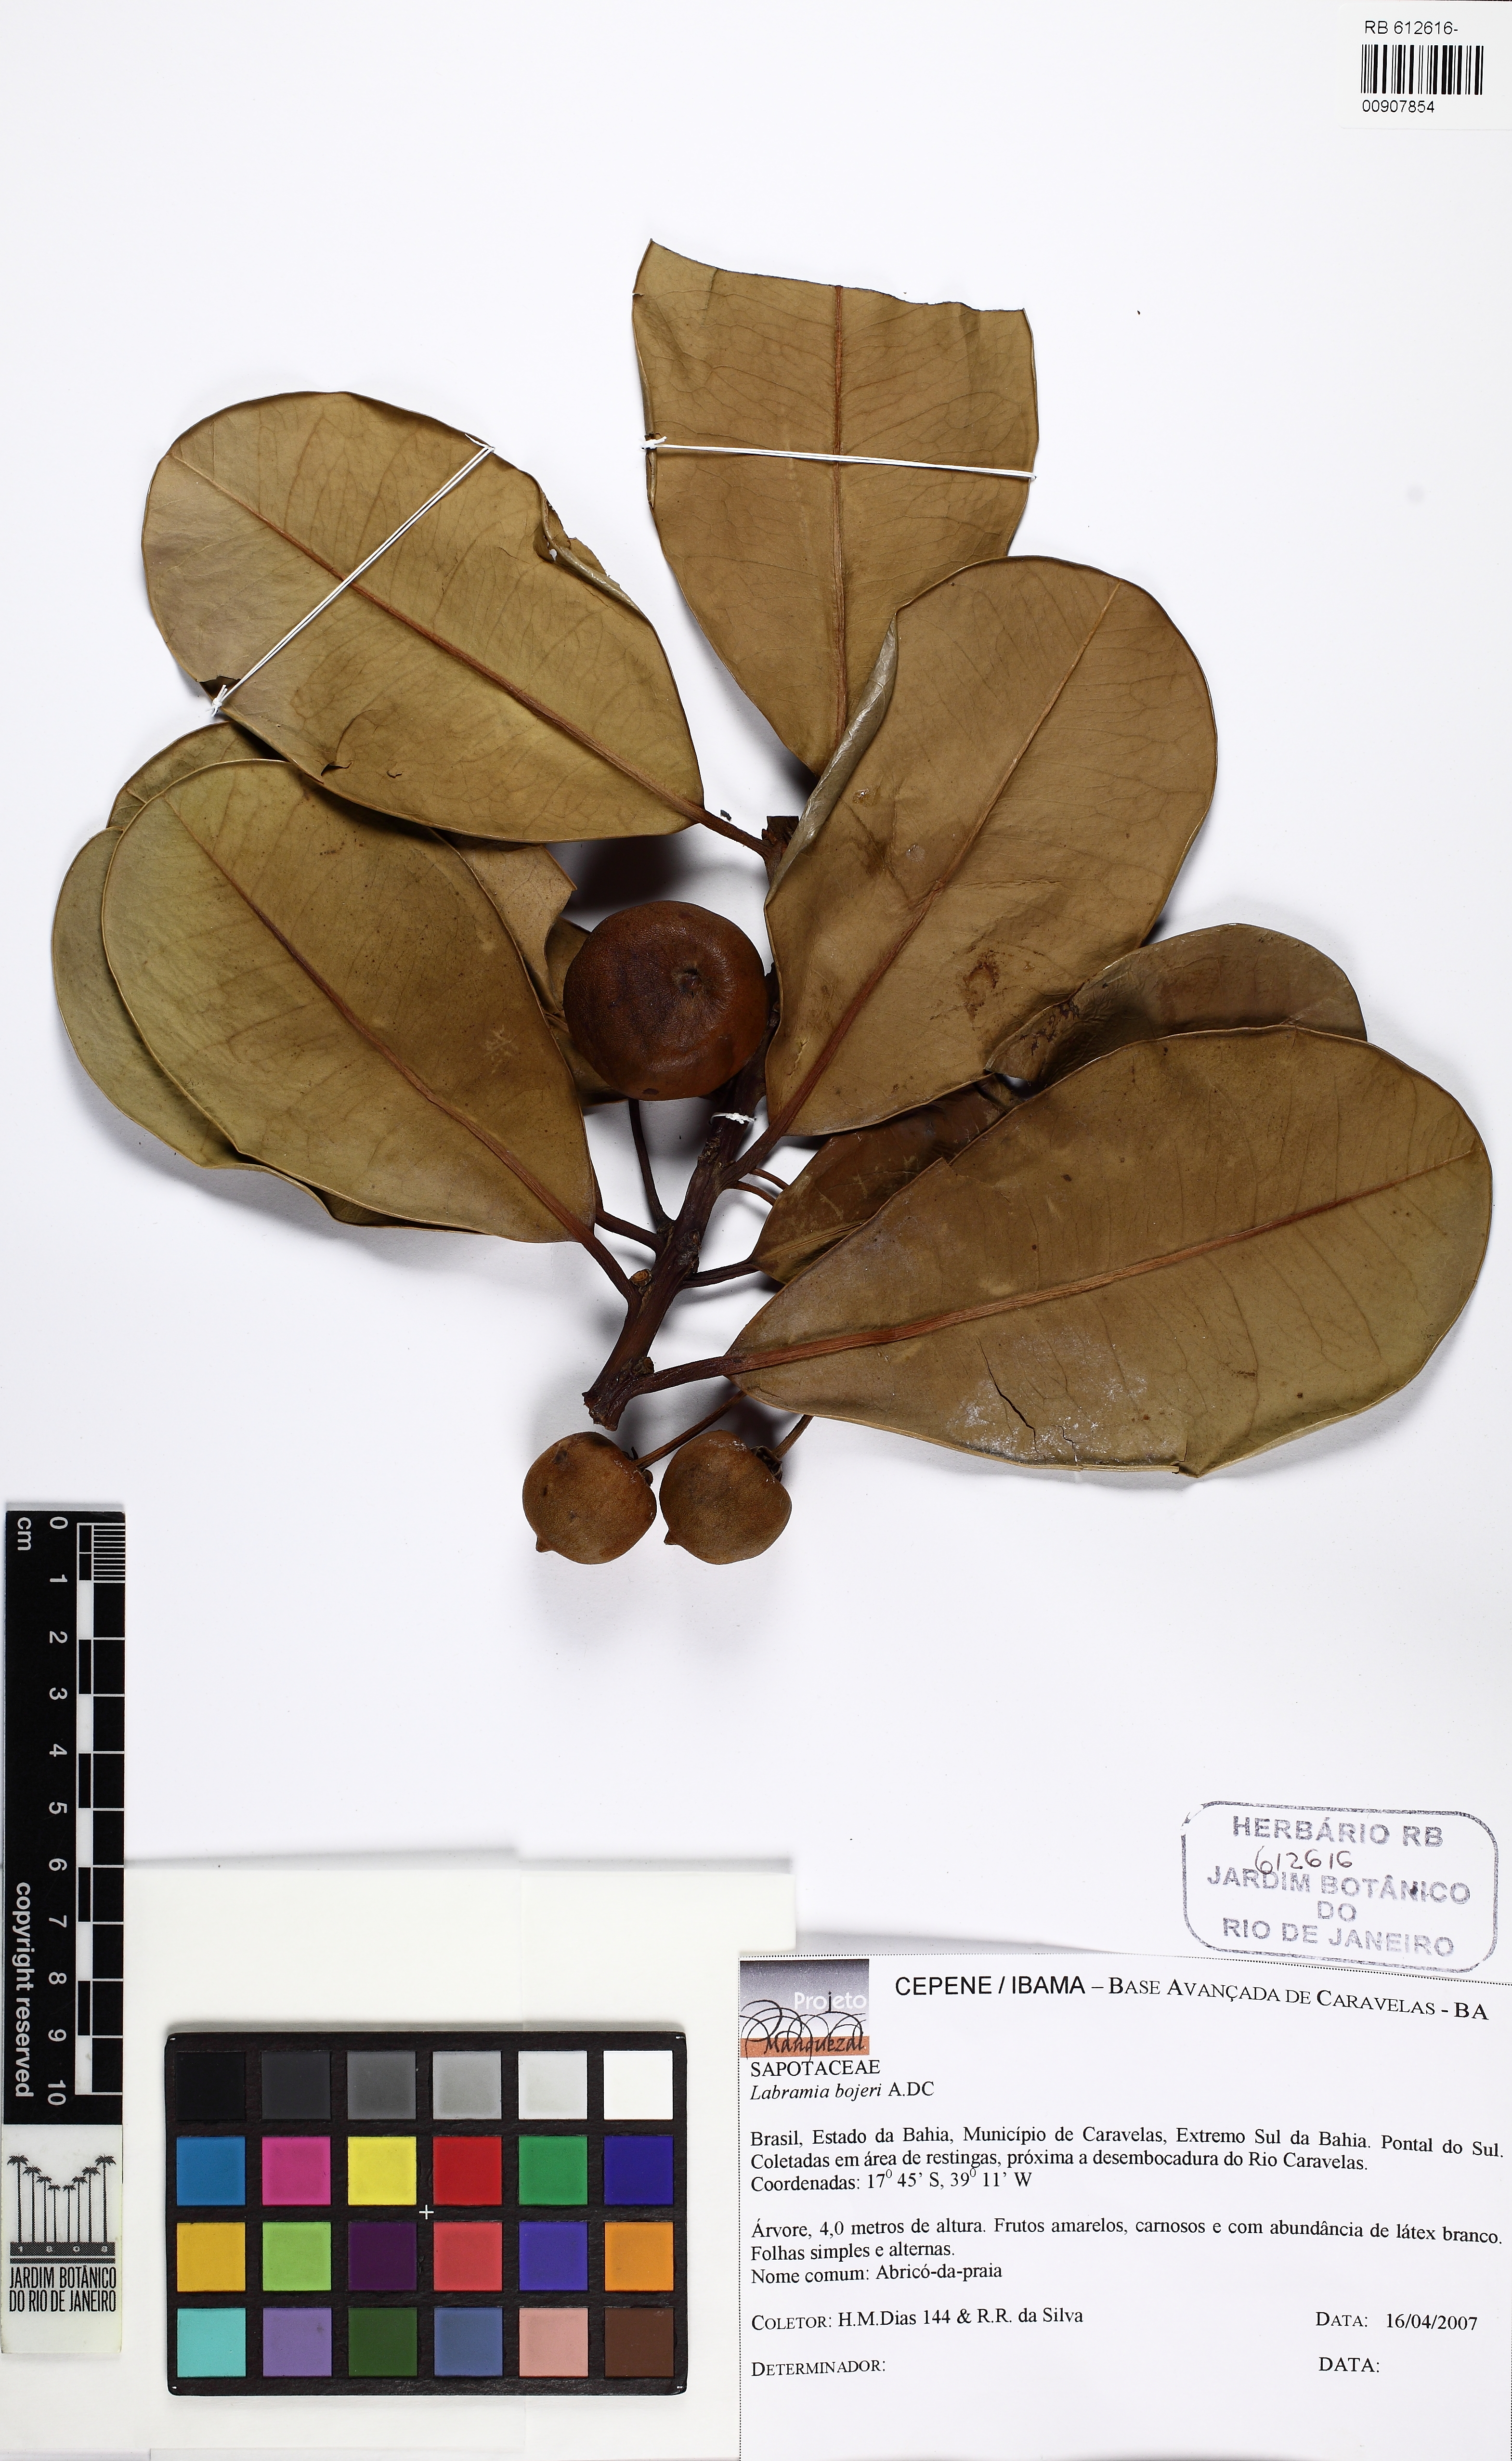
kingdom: Plantae
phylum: Tracheophyta
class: Magnoliopsida
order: Ericales
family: Sapotaceae
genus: Labramia
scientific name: Labramia bojeri
